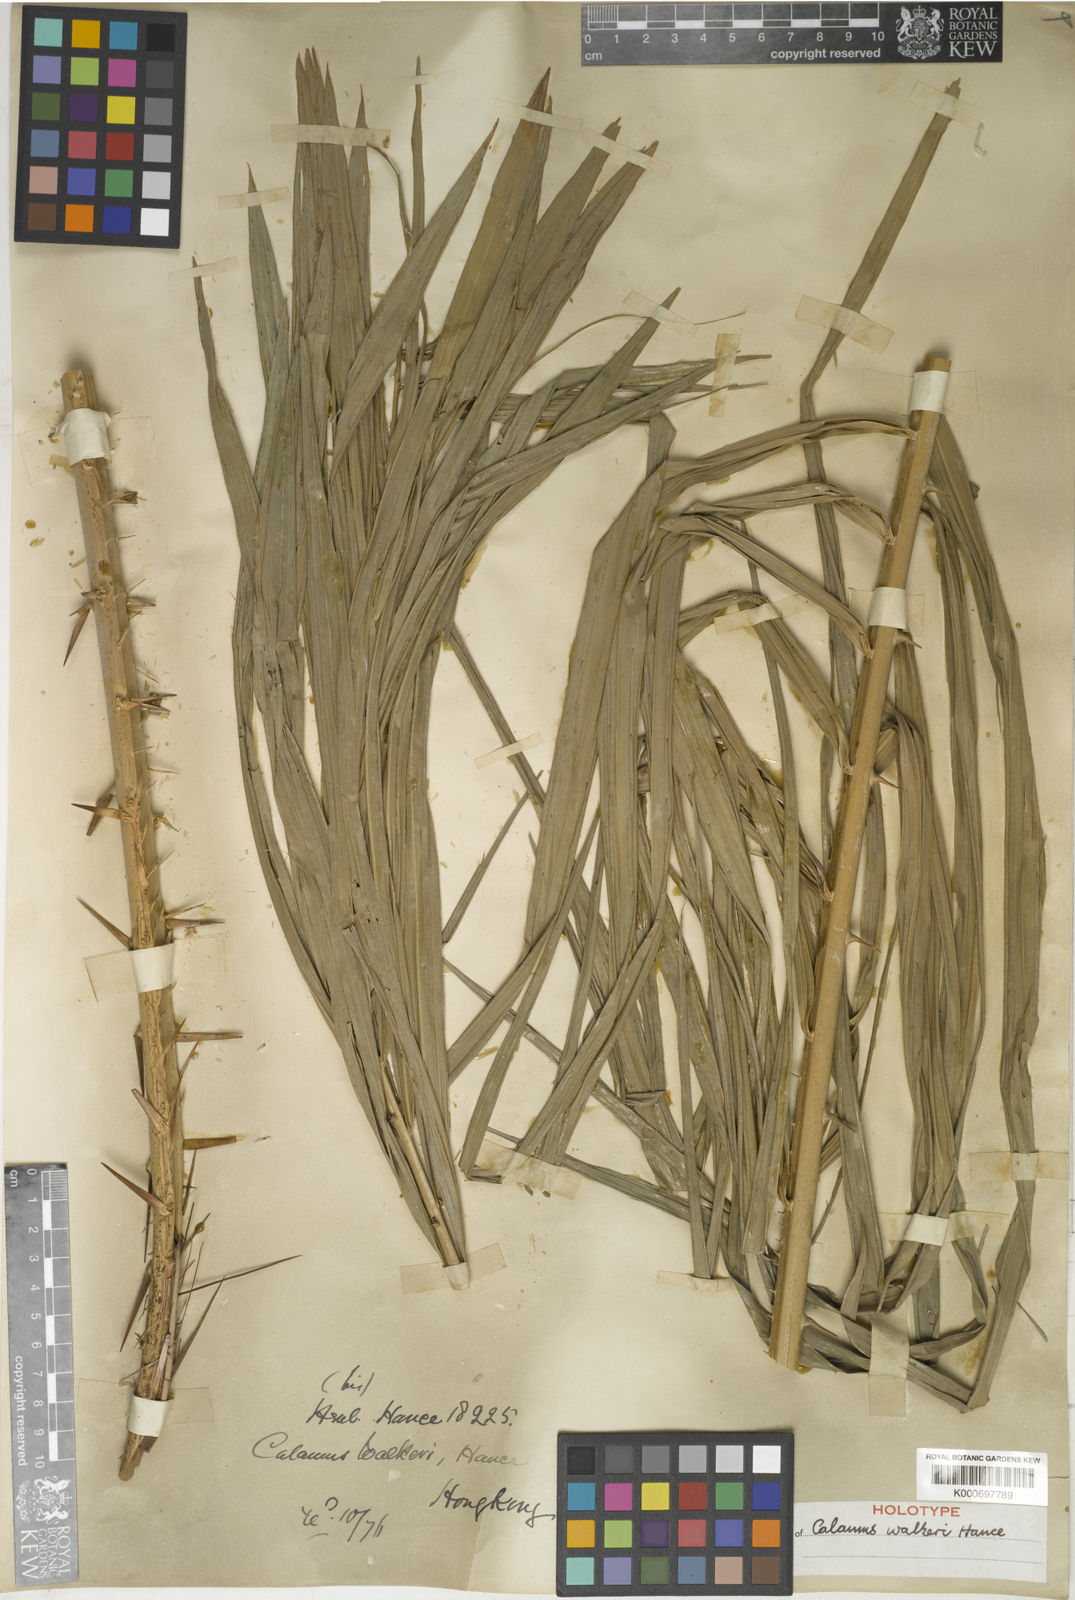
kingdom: Plantae
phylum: Tracheophyta
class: Liliopsida
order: Arecales
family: Arecaceae
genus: Calamus
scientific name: Calamus walkeri
